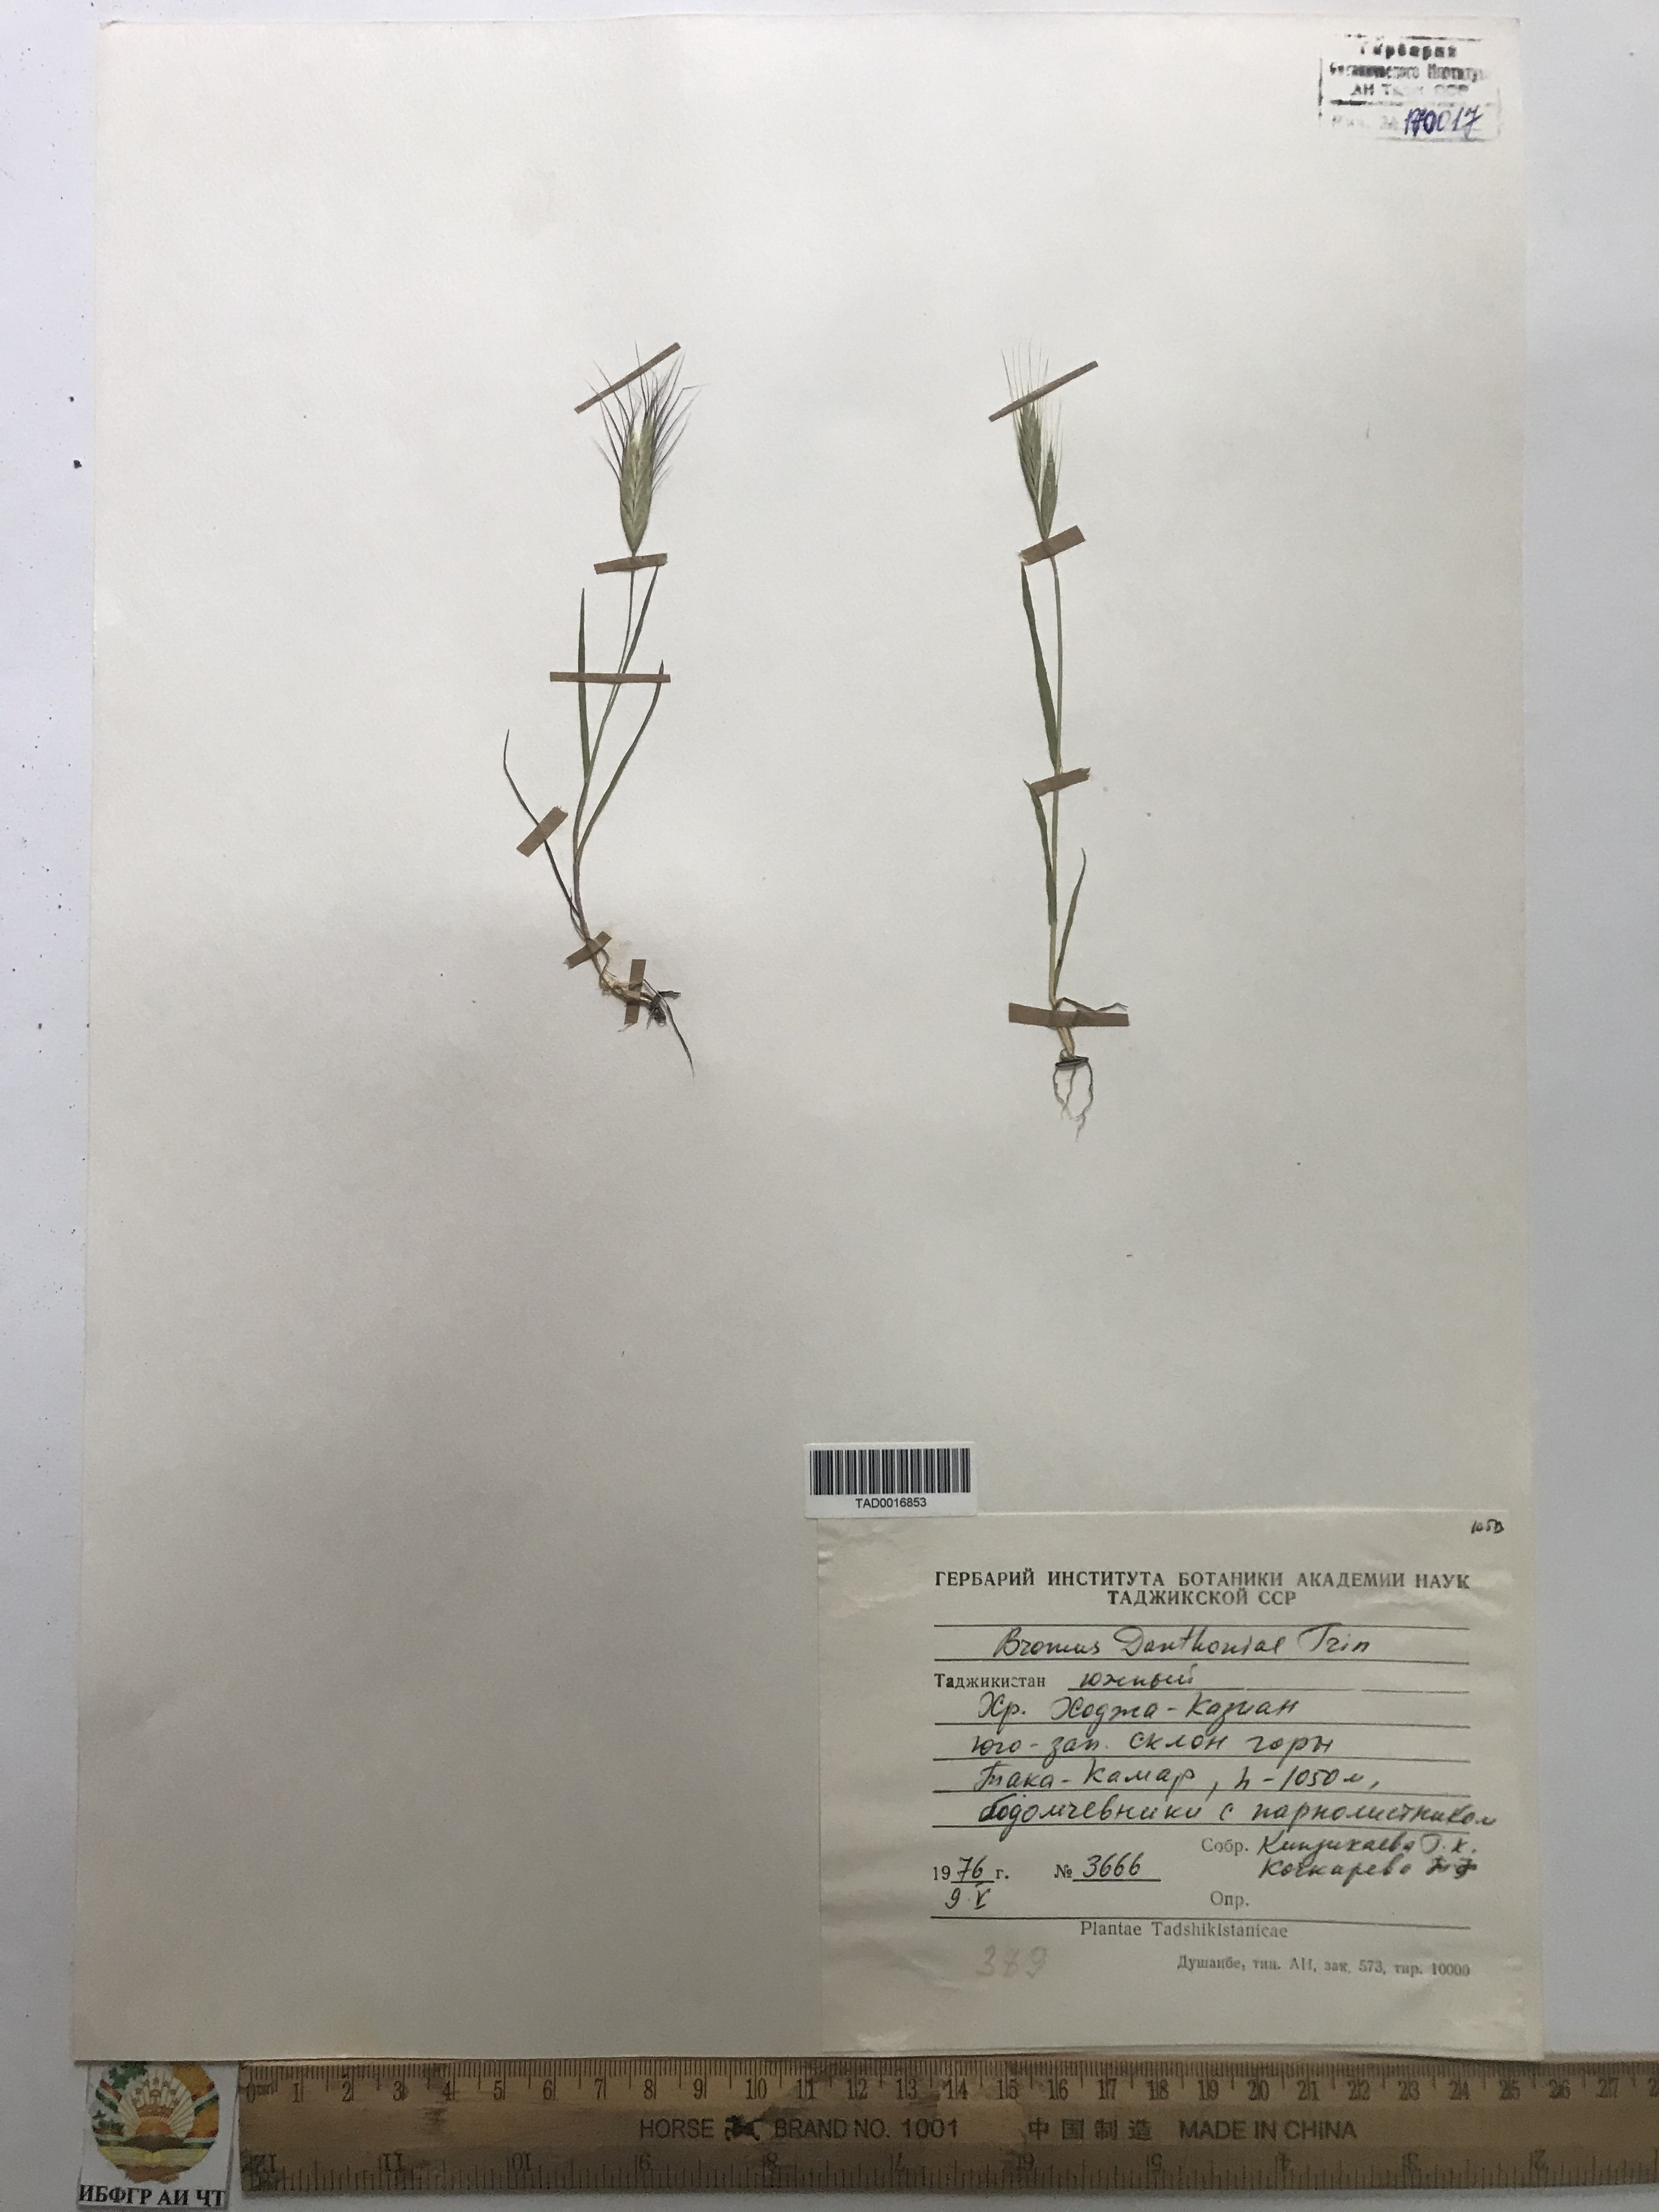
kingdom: Plantae
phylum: Tracheophyta
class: Liliopsida
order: Poales
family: Poaceae
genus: Bromus
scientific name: Bromus danthoniae
